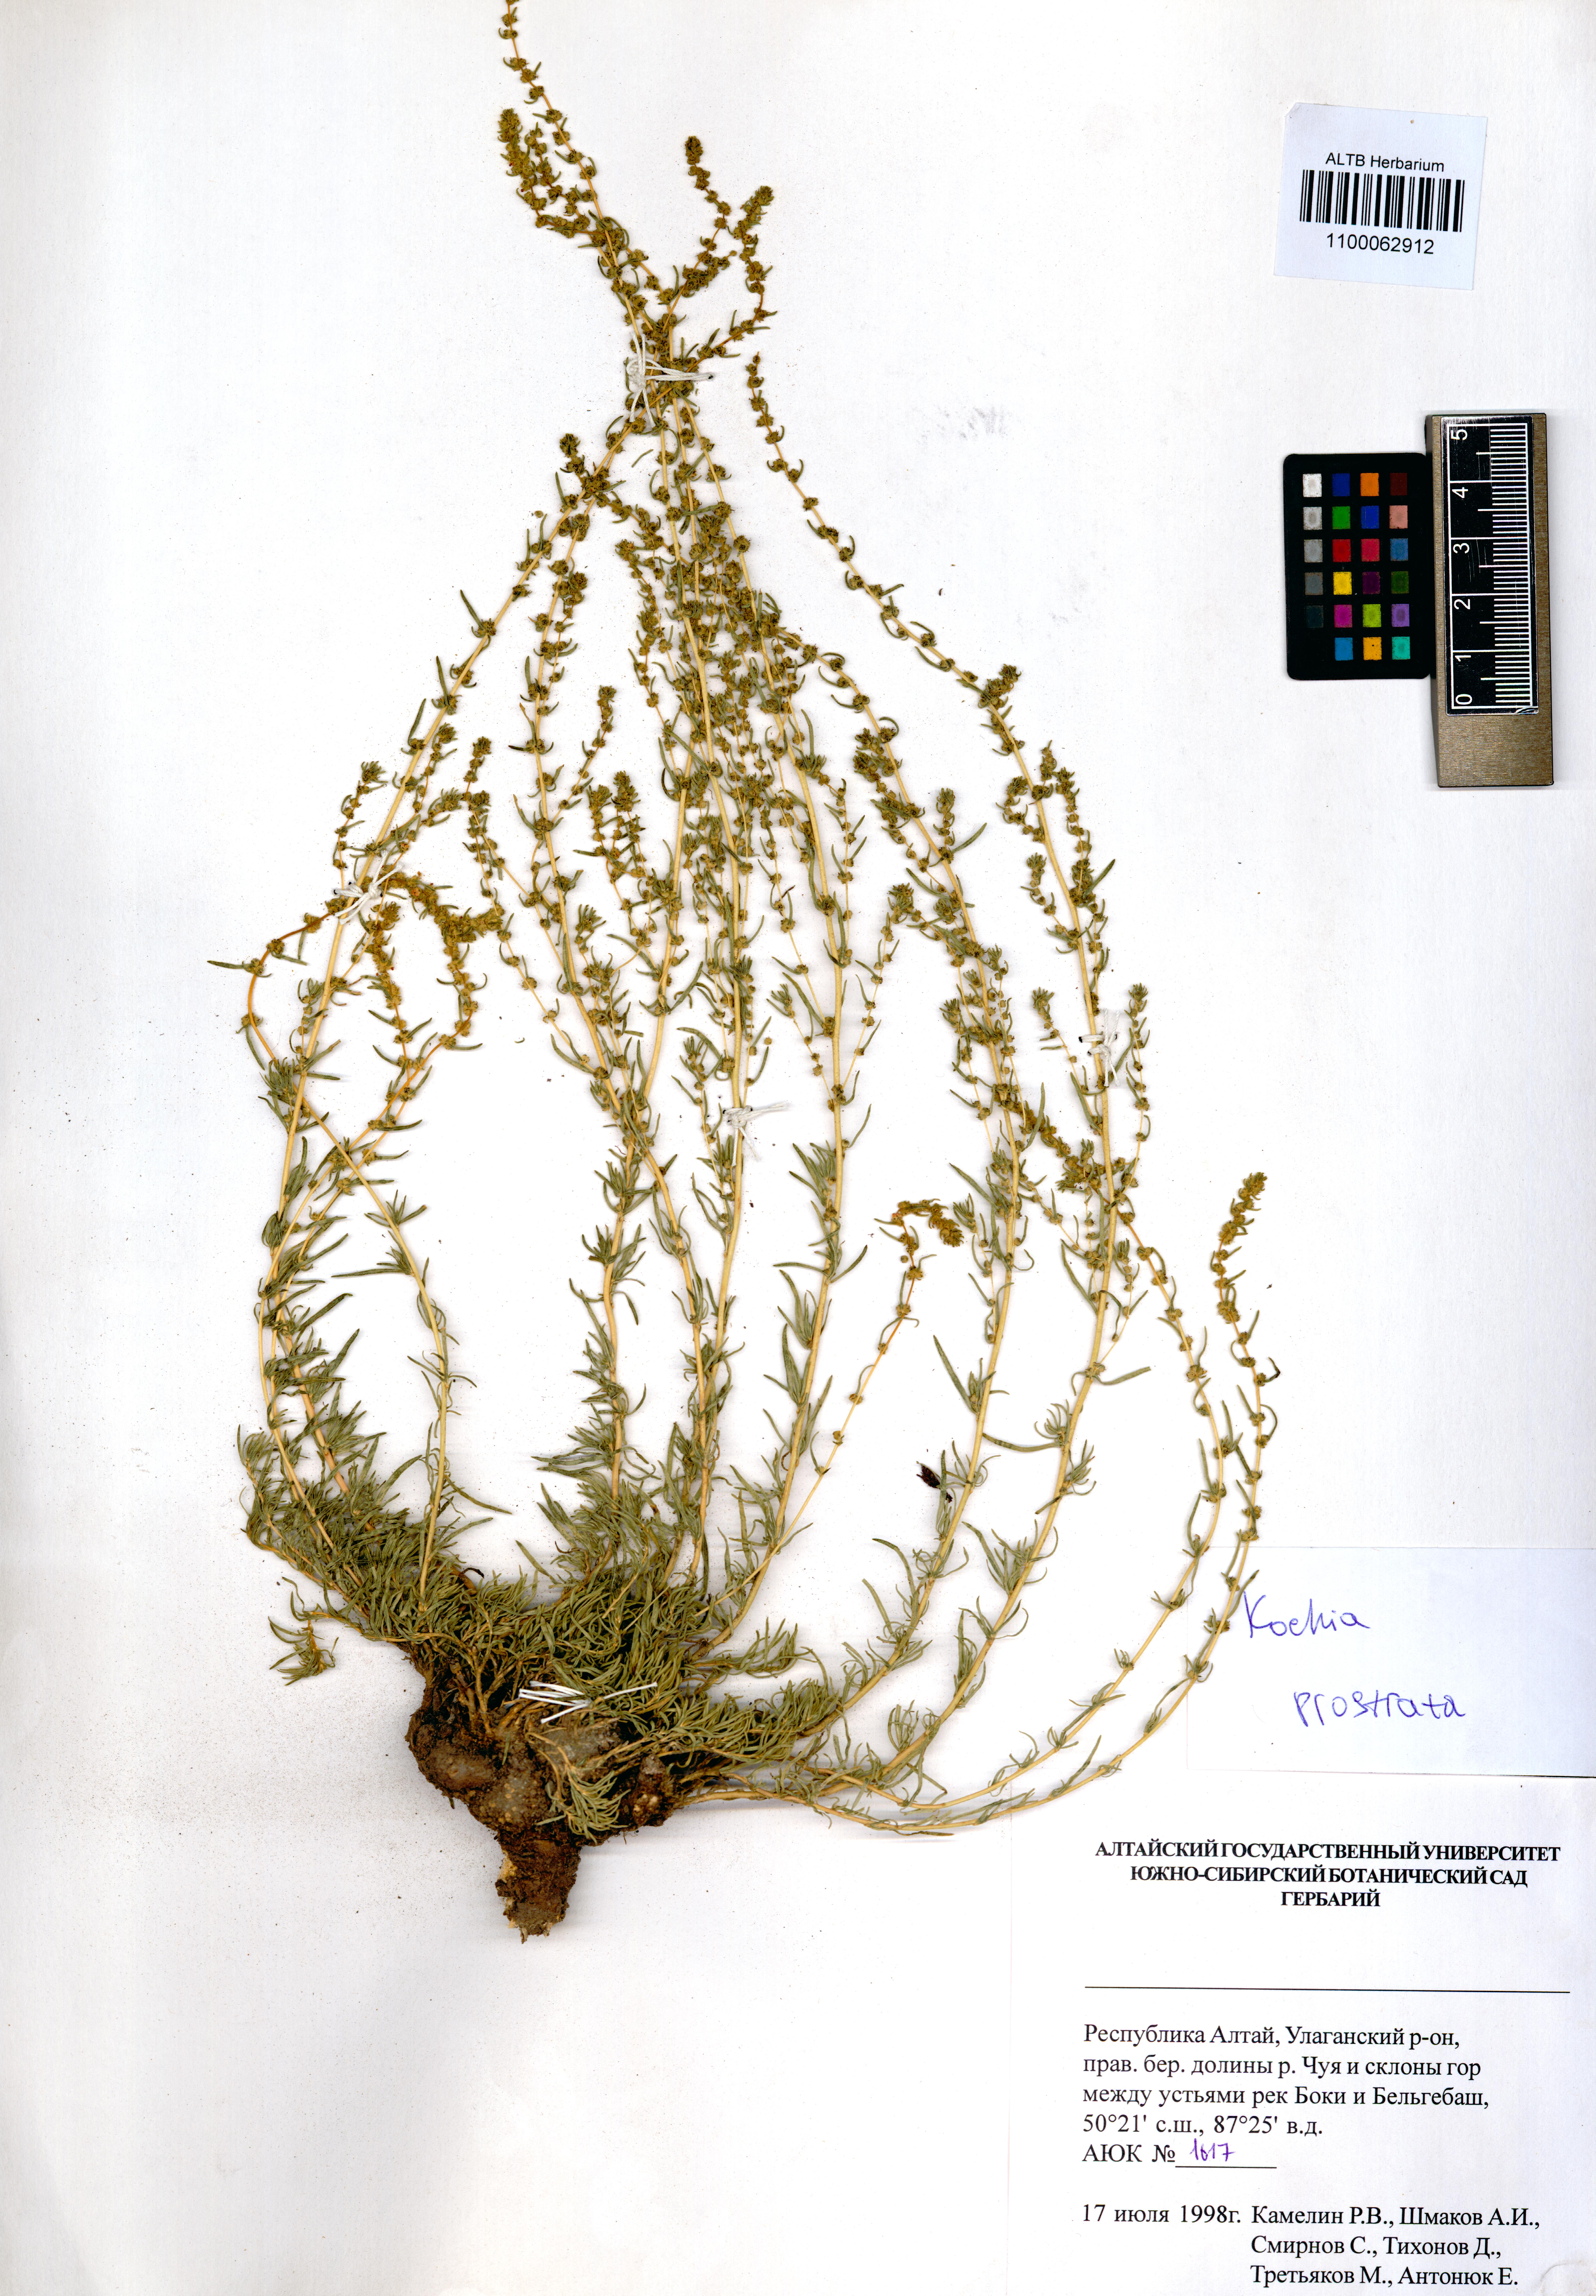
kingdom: Plantae
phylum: Tracheophyta
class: Magnoliopsida
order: Caryophyllales
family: Amaranthaceae
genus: Bassia
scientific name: Bassia prostrata
